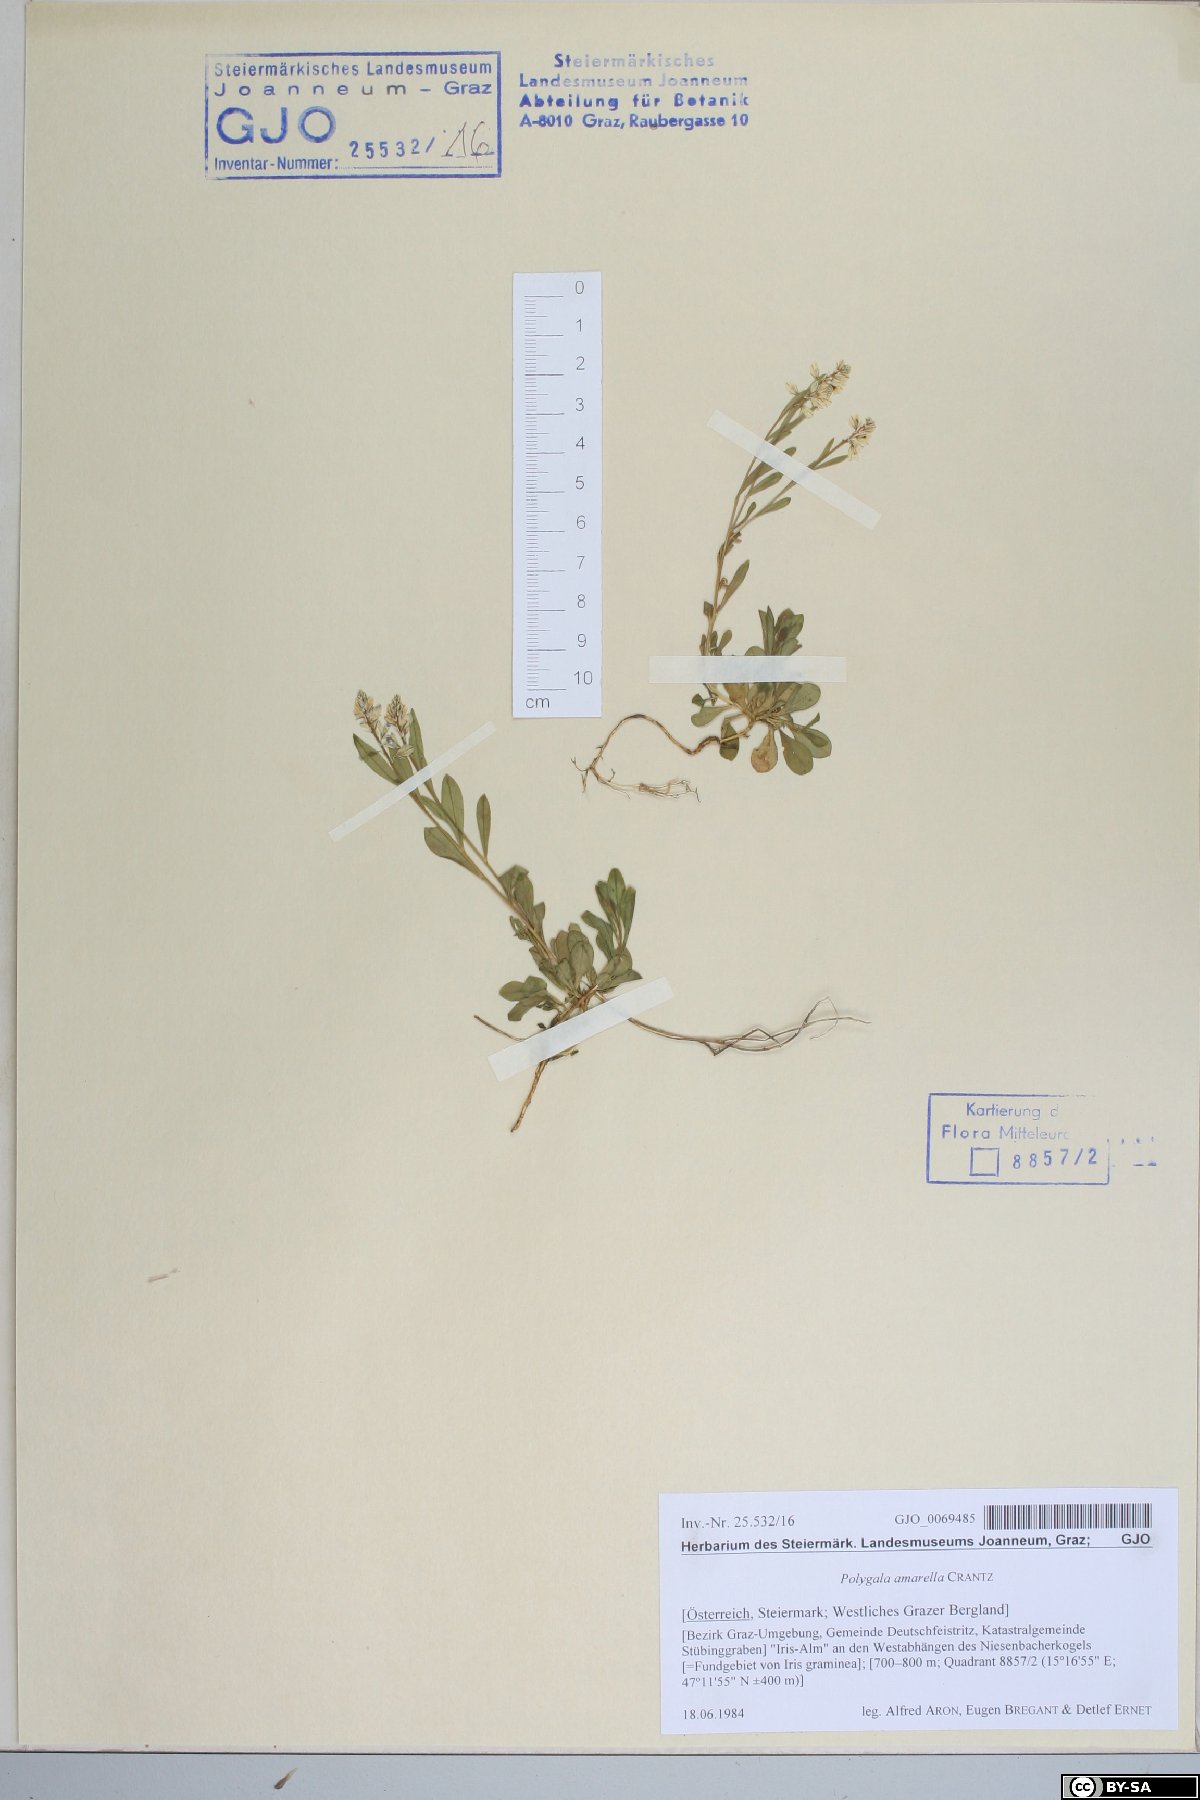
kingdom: Plantae
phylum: Tracheophyta
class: Magnoliopsida
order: Fabales
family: Polygalaceae
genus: Polygala
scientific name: Polygala amarella
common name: Dwarf milkwort
